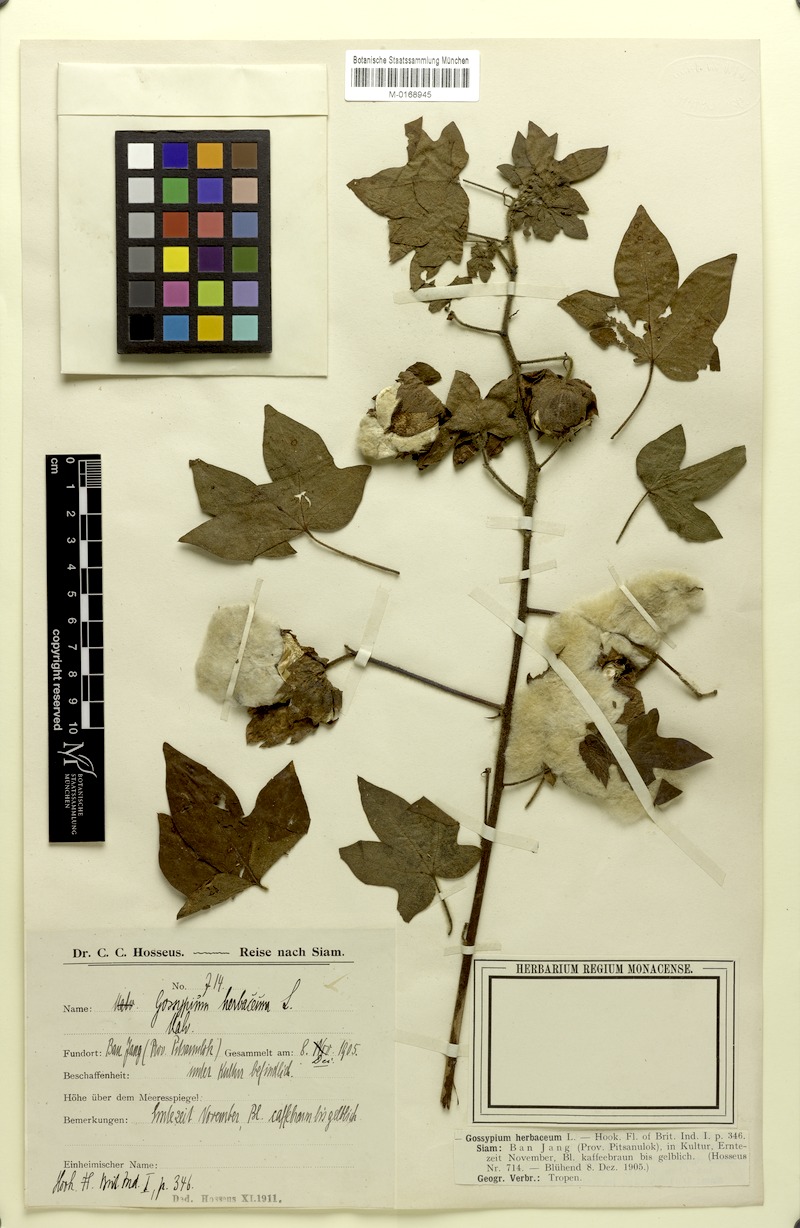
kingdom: Plantae
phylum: Tracheophyta
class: Magnoliopsida
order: Malvales
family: Malvaceae
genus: Gossypium
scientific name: Gossypium herbaceum
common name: Levant cotton
